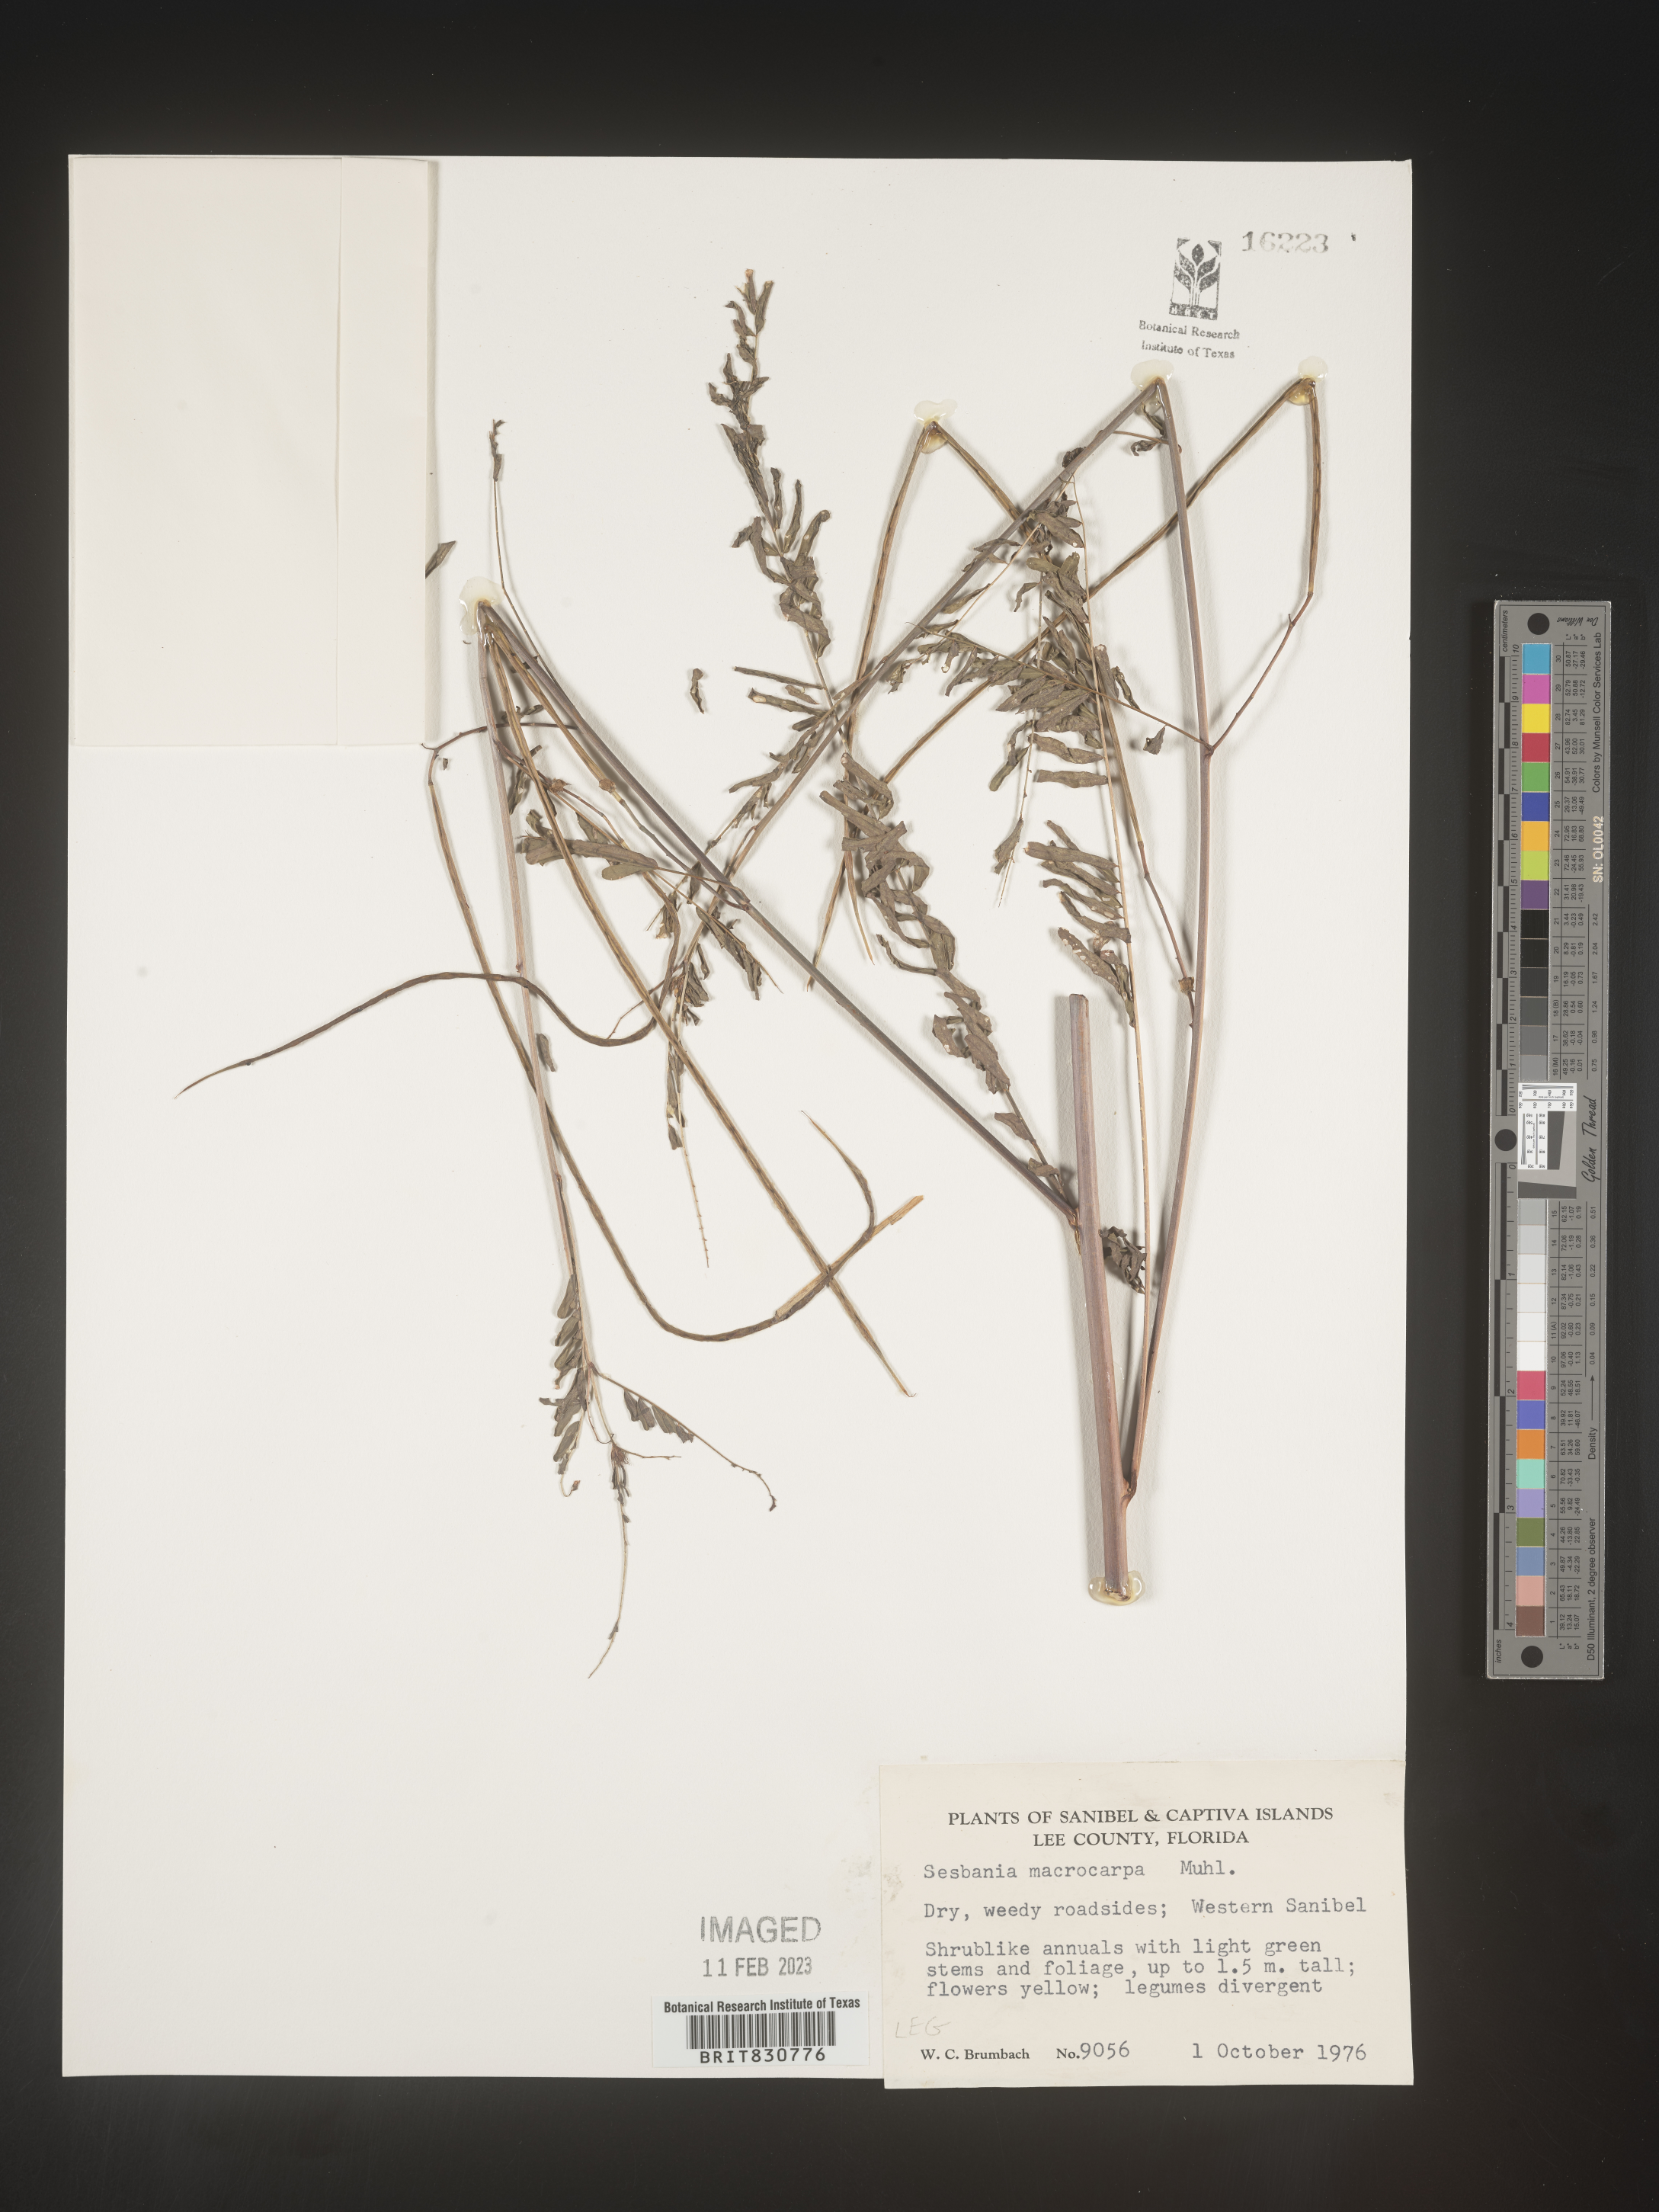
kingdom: Plantae
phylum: Tracheophyta
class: Magnoliopsida
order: Fabales
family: Fabaceae
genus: Sesbania
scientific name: Sesbania vesicaria
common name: Bagpod
